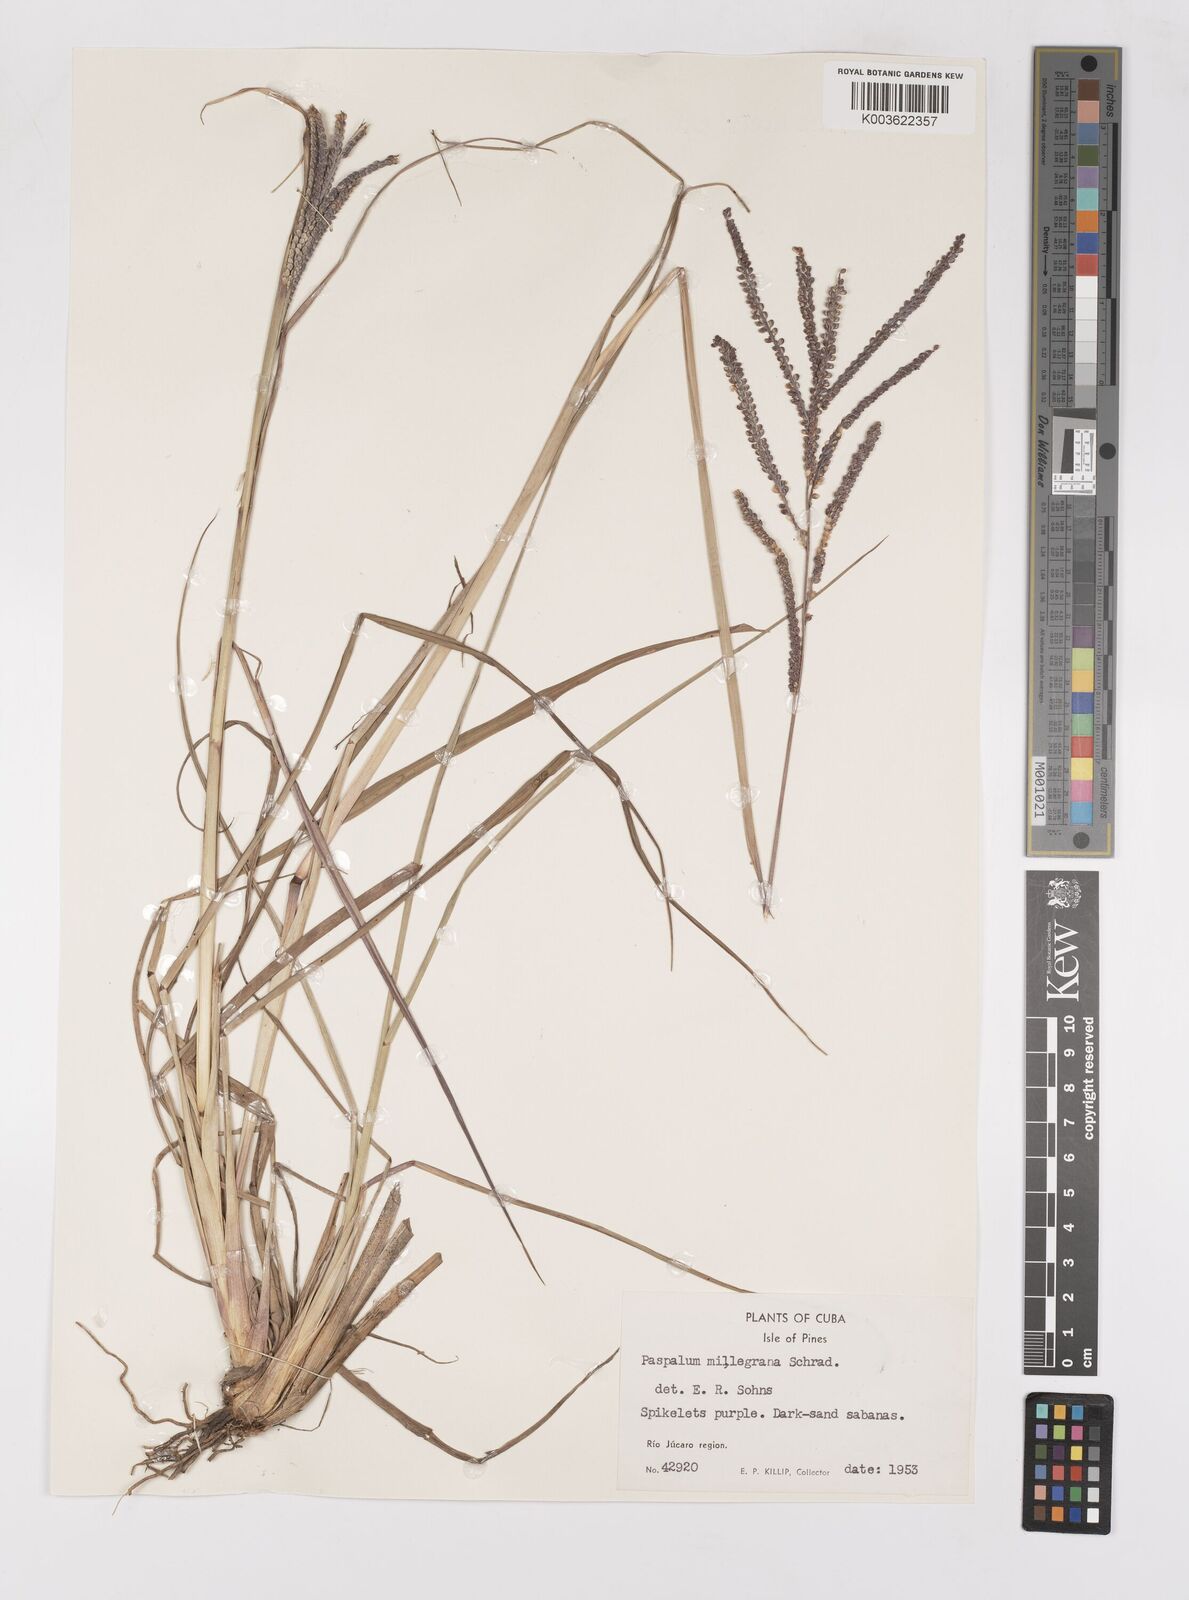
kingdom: Plantae
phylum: Tracheophyta
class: Liliopsida
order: Poales
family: Poaceae
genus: Paspalum
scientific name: Paspalum millegranum
